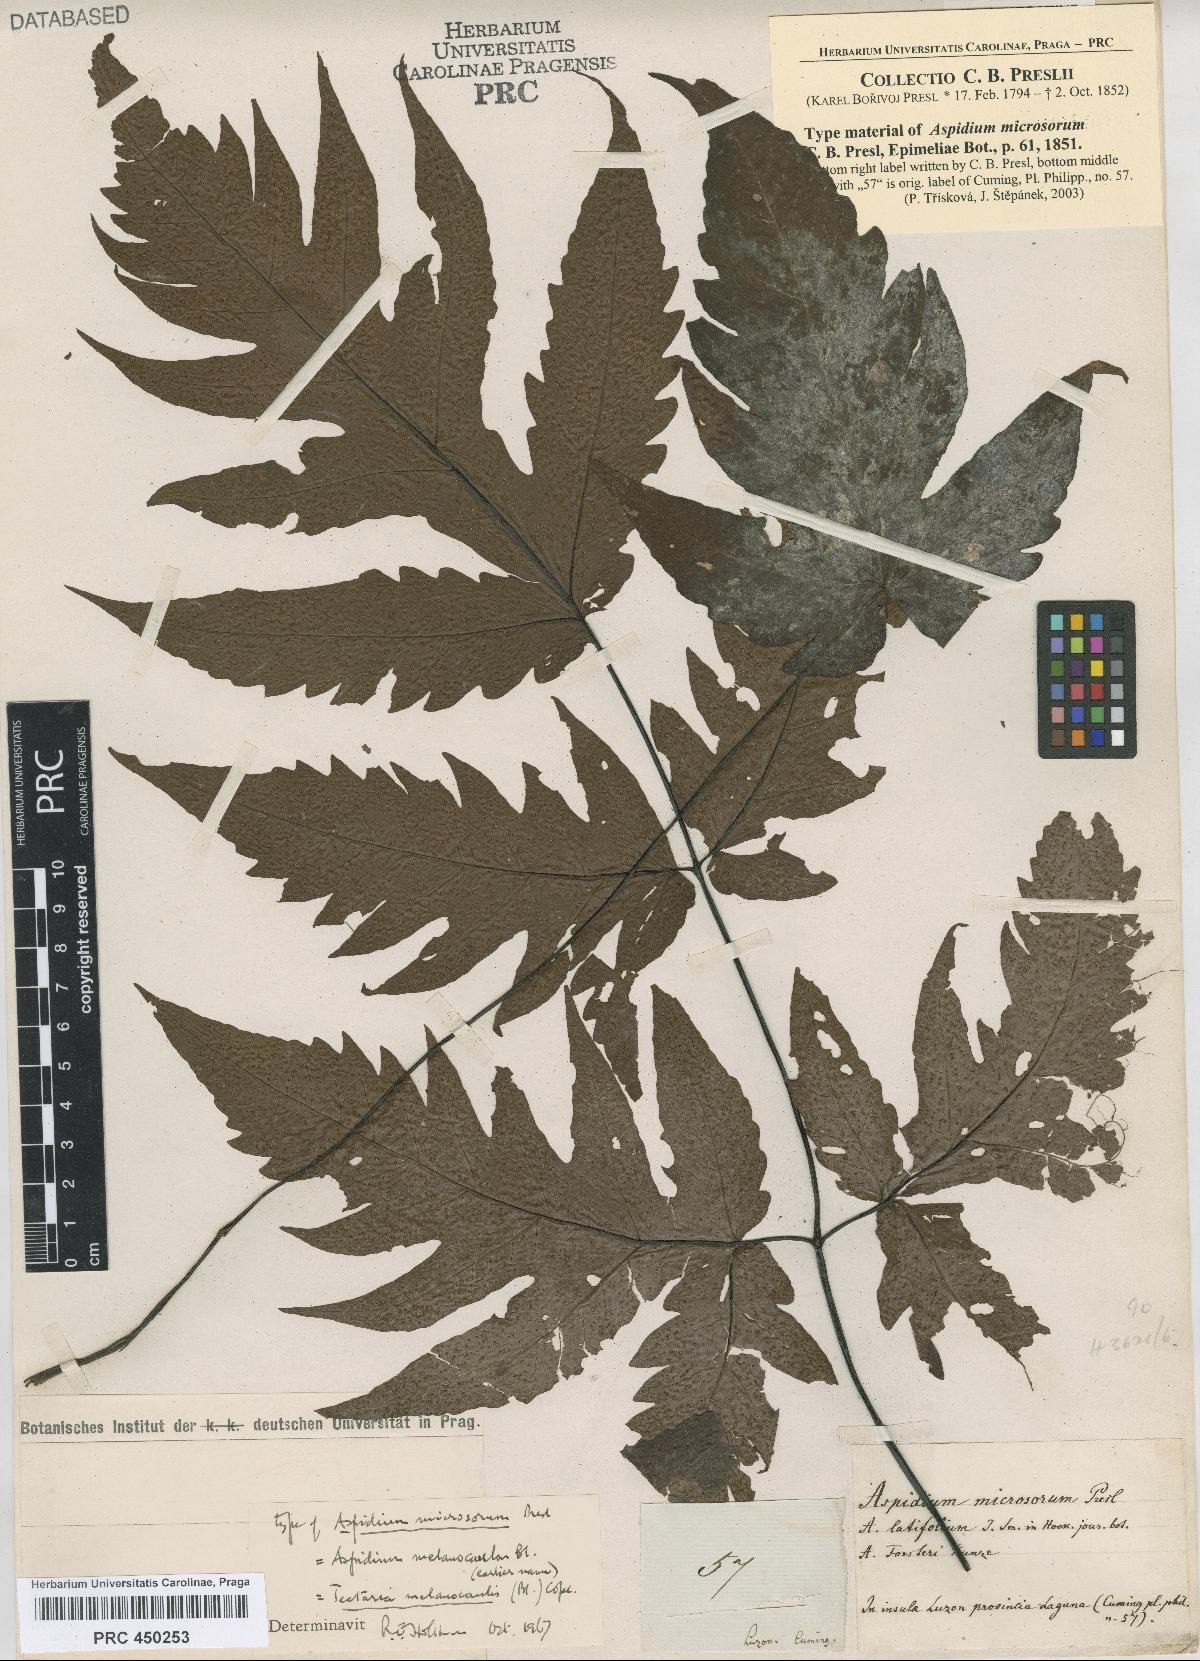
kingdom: Plantae
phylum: Tracheophyta
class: Polypodiopsida
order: Polypodiales
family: Tectariaceae
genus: Tectaria
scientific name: Tectaria melanocaulos
